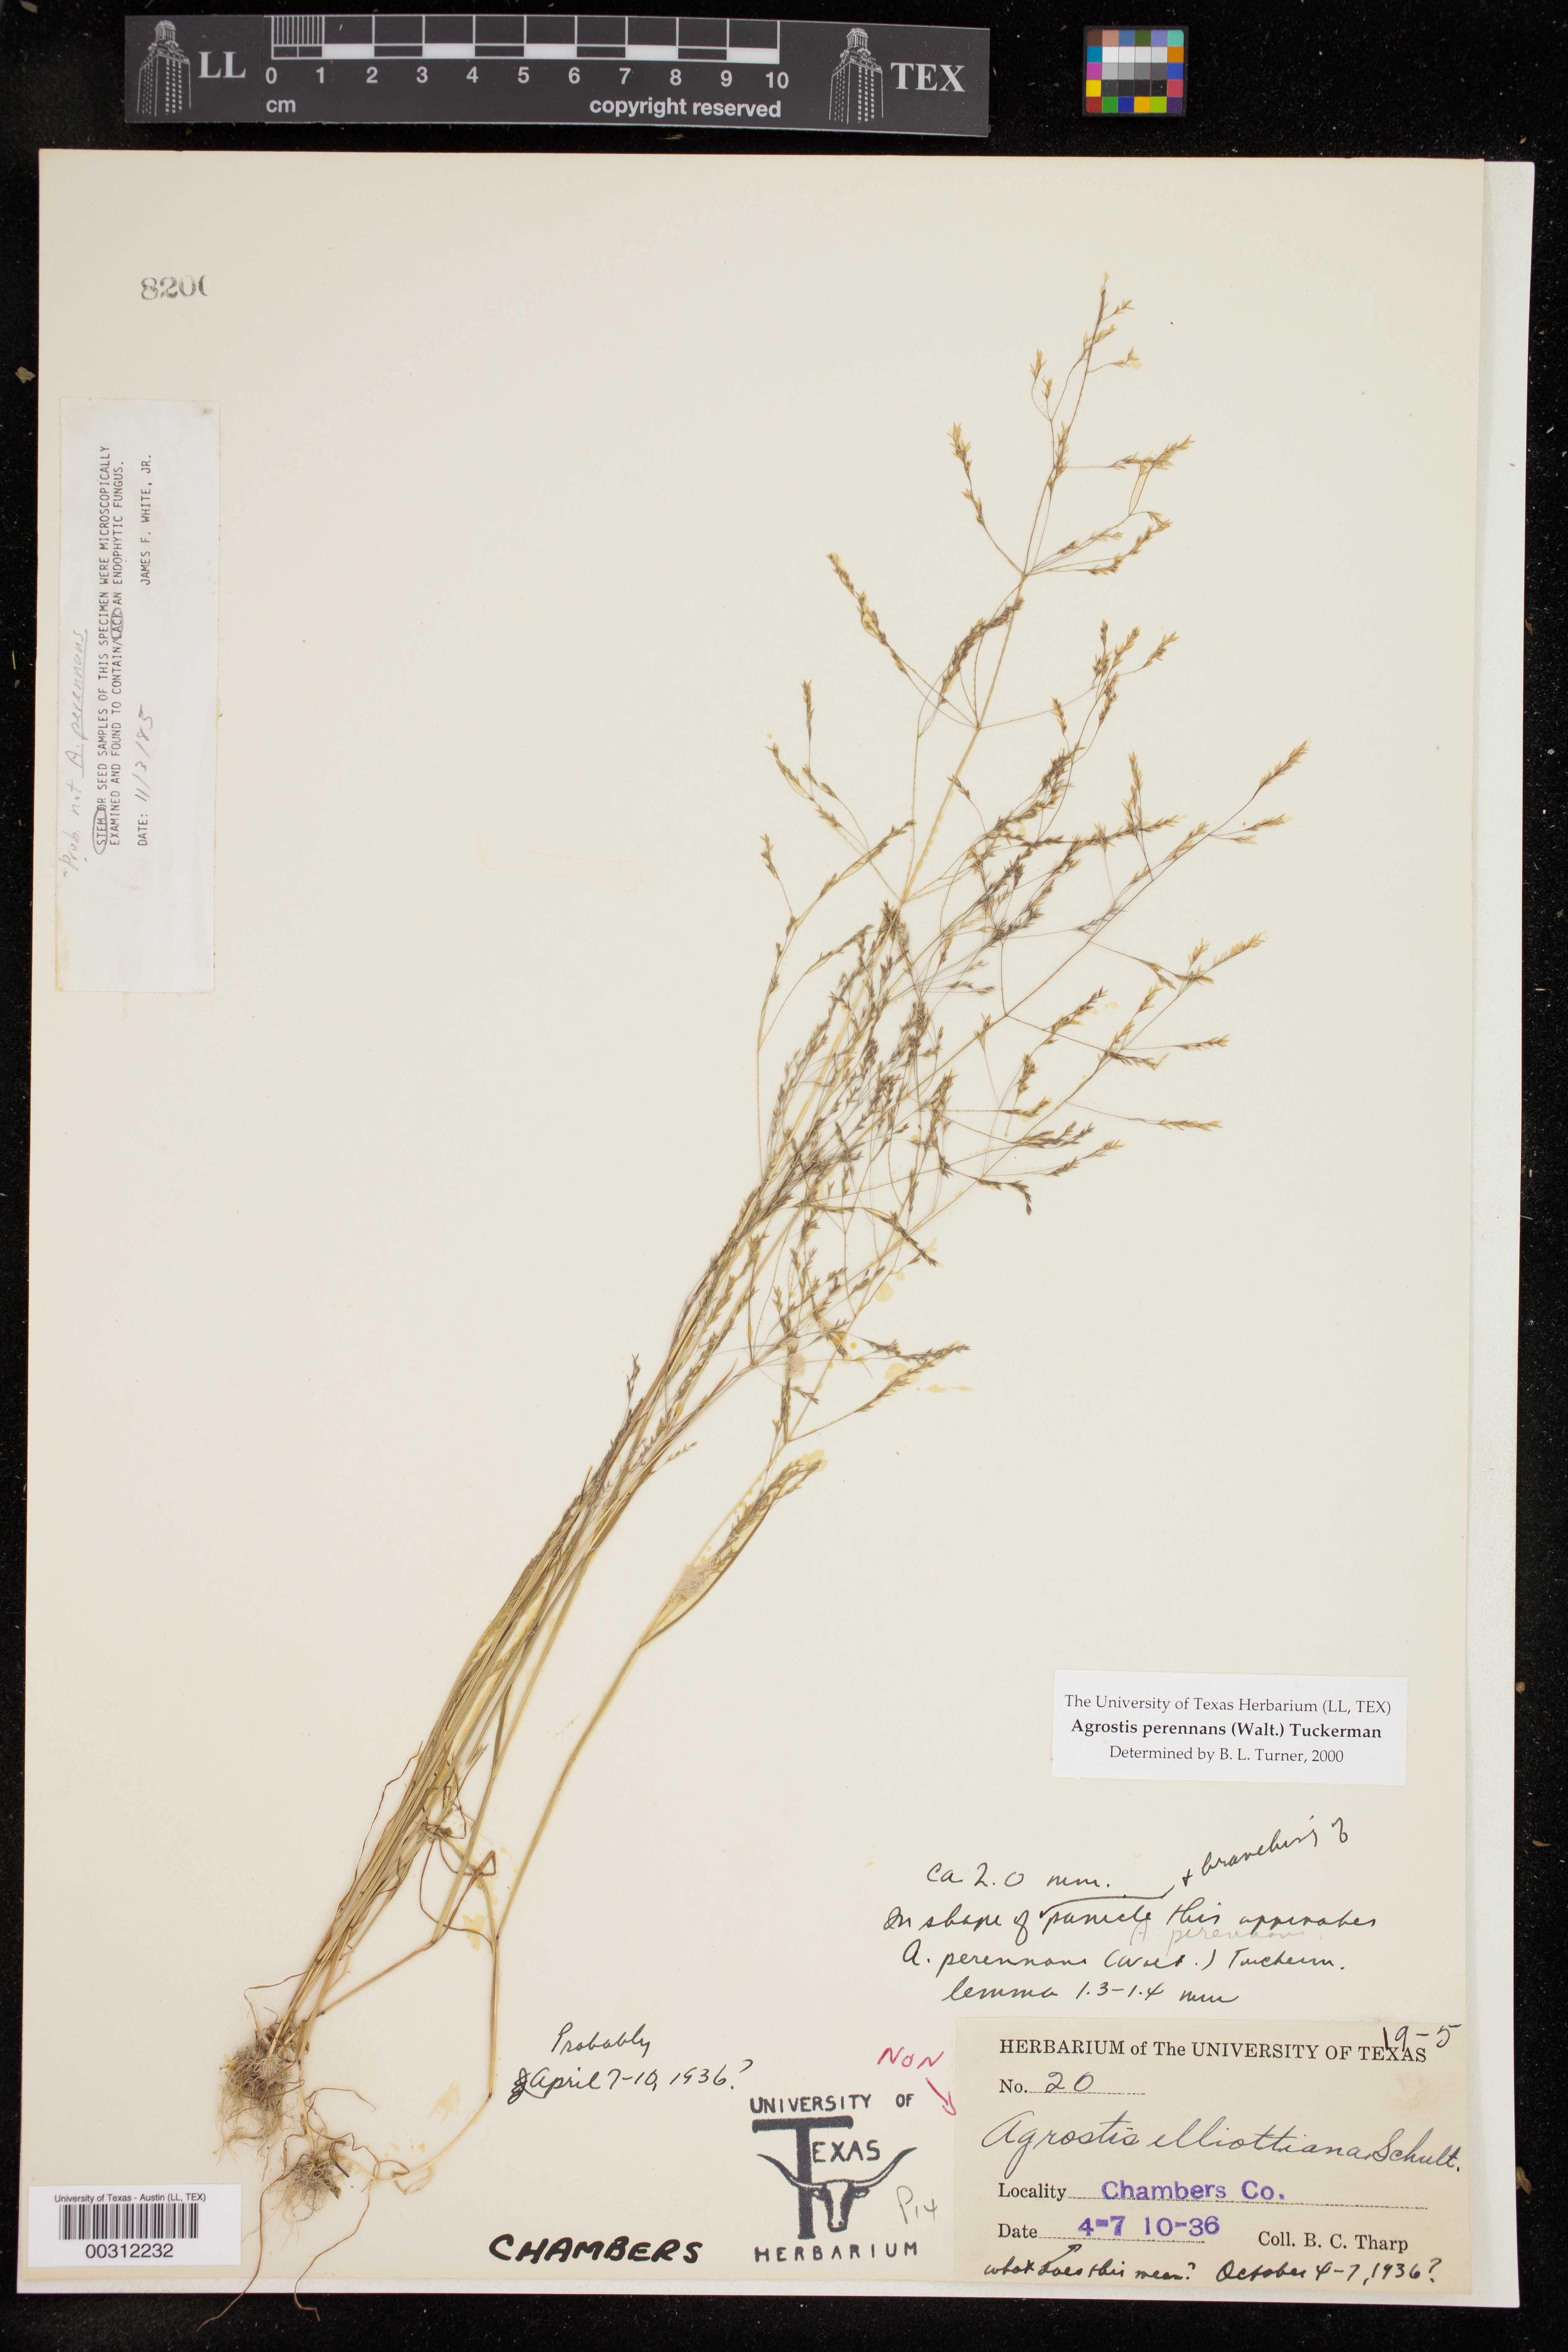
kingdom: Plantae
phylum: Tracheophyta
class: Liliopsida
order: Poales
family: Poaceae
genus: Agrostis
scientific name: Agrostis perennans
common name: Autumn bent
